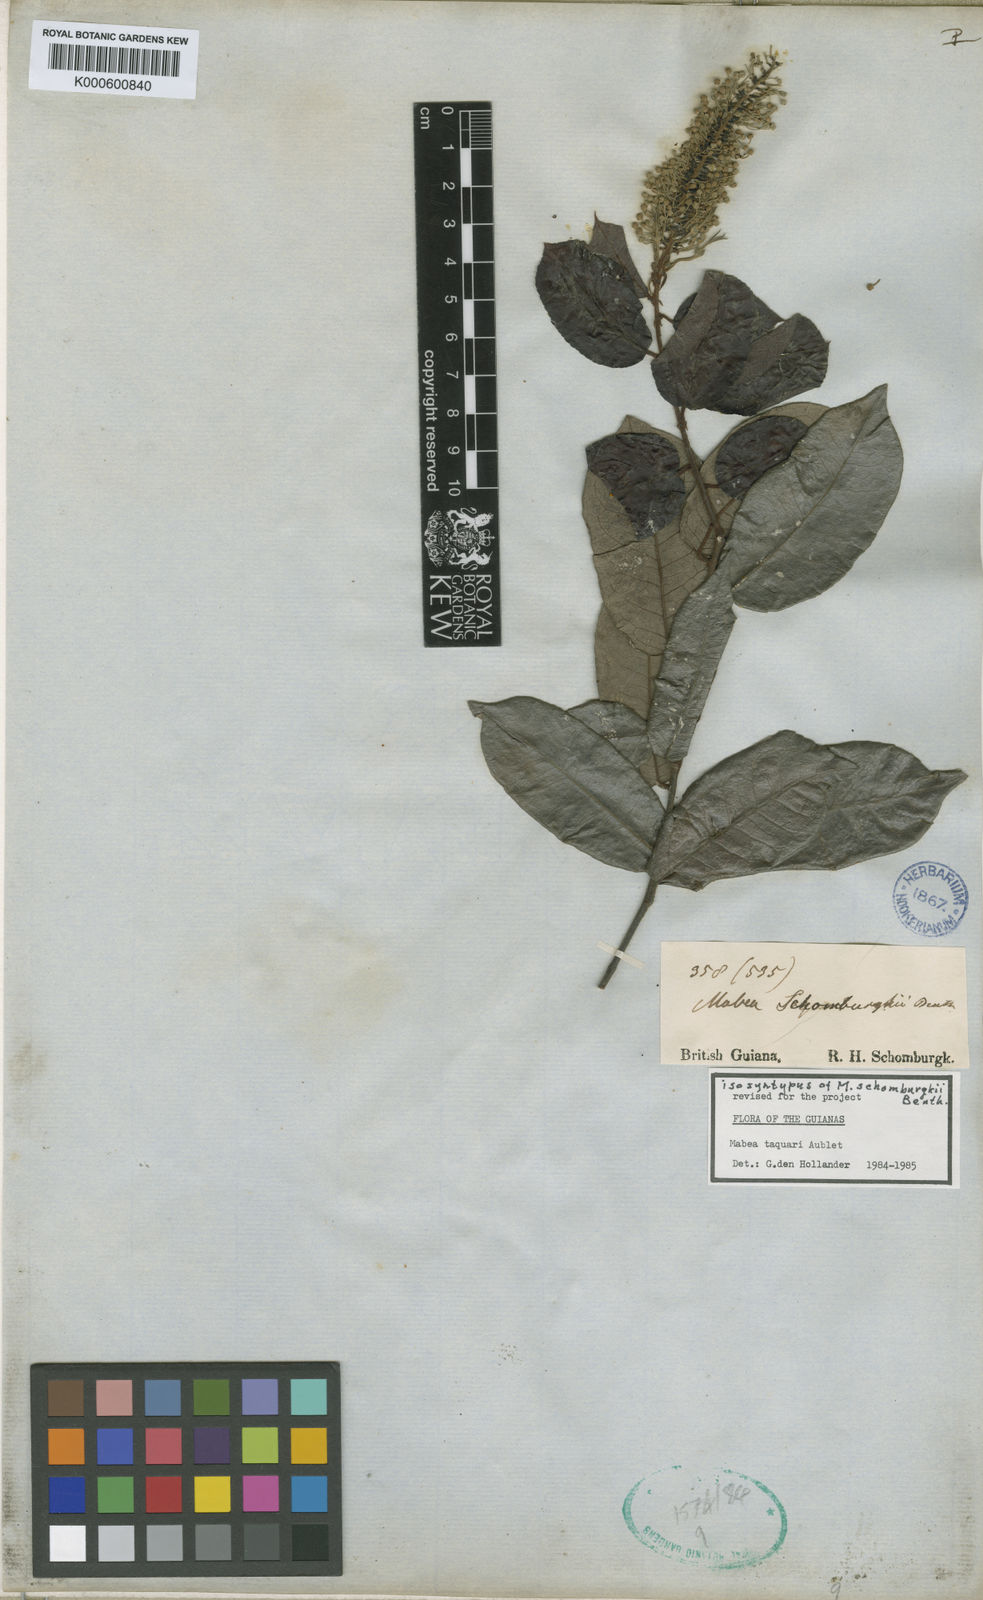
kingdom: Plantae
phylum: Tracheophyta
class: Magnoliopsida
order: Malpighiales
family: Euphorbiaceae
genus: Mabea
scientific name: Mabea taquari
